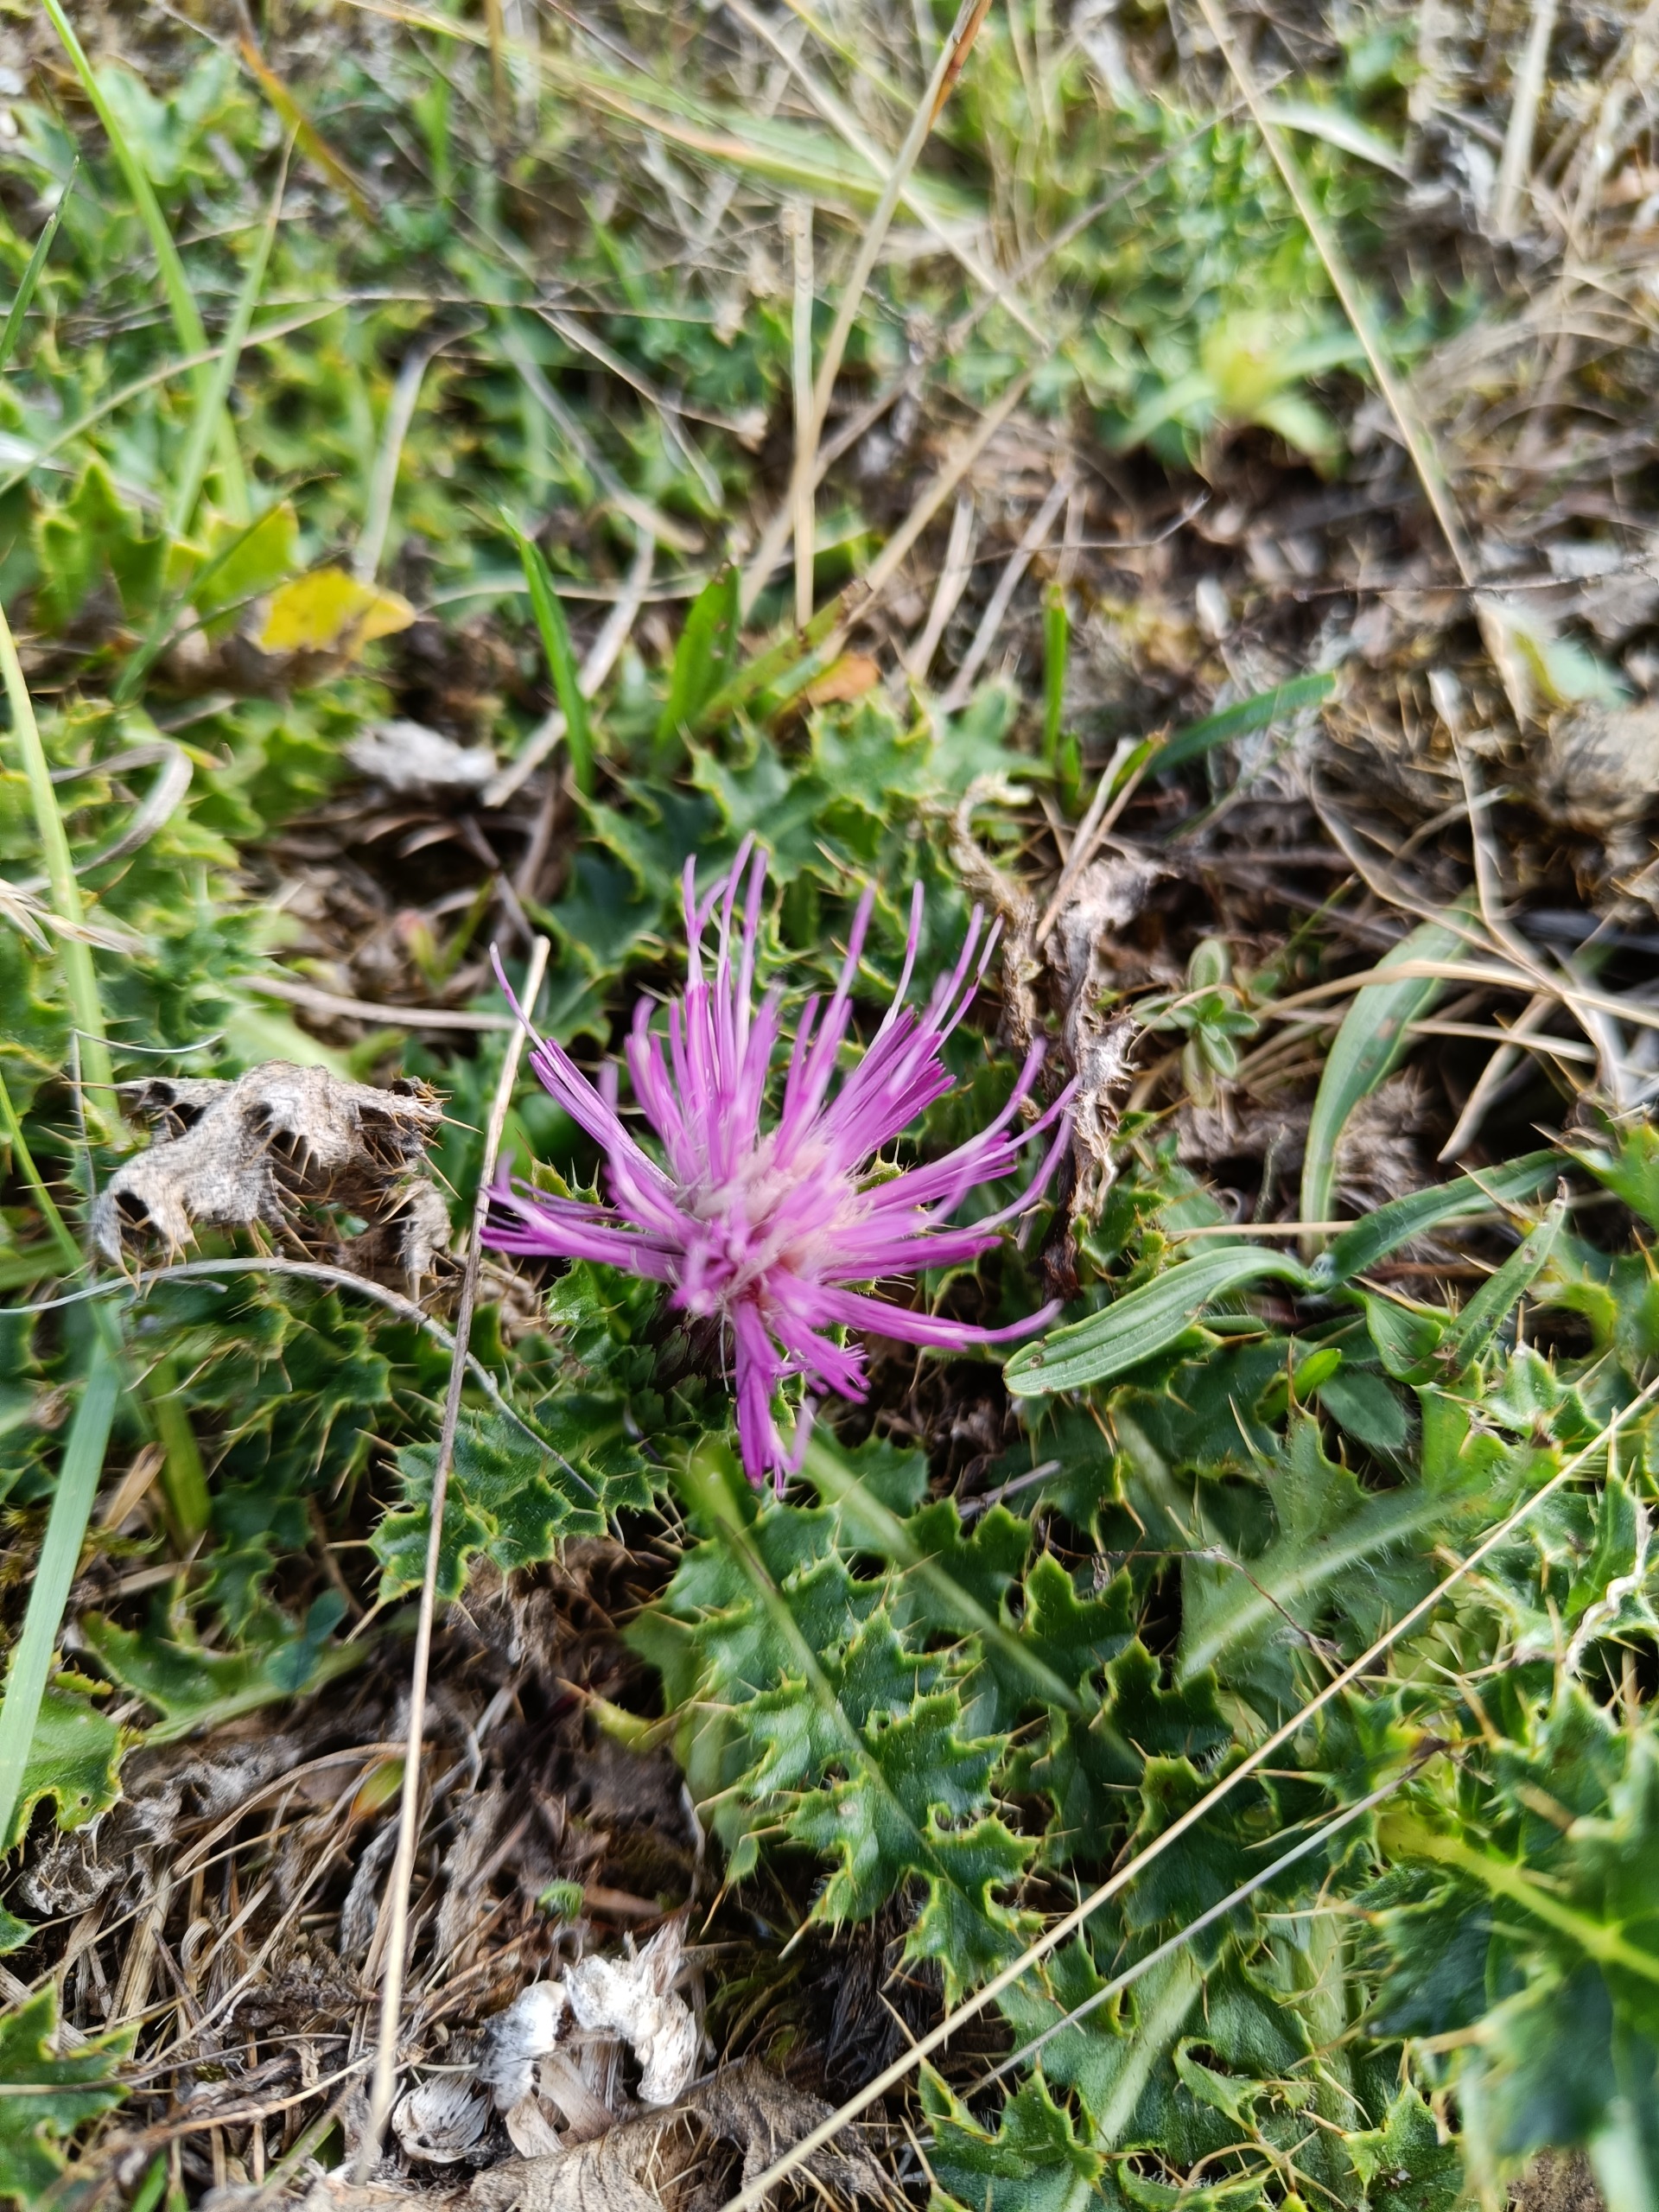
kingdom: Plantae
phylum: Tracheophyta
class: Magnoliopsida
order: Asterales
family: Asteraceae
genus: Cirsium
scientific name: Cirsium acaule
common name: Lav tidsel
